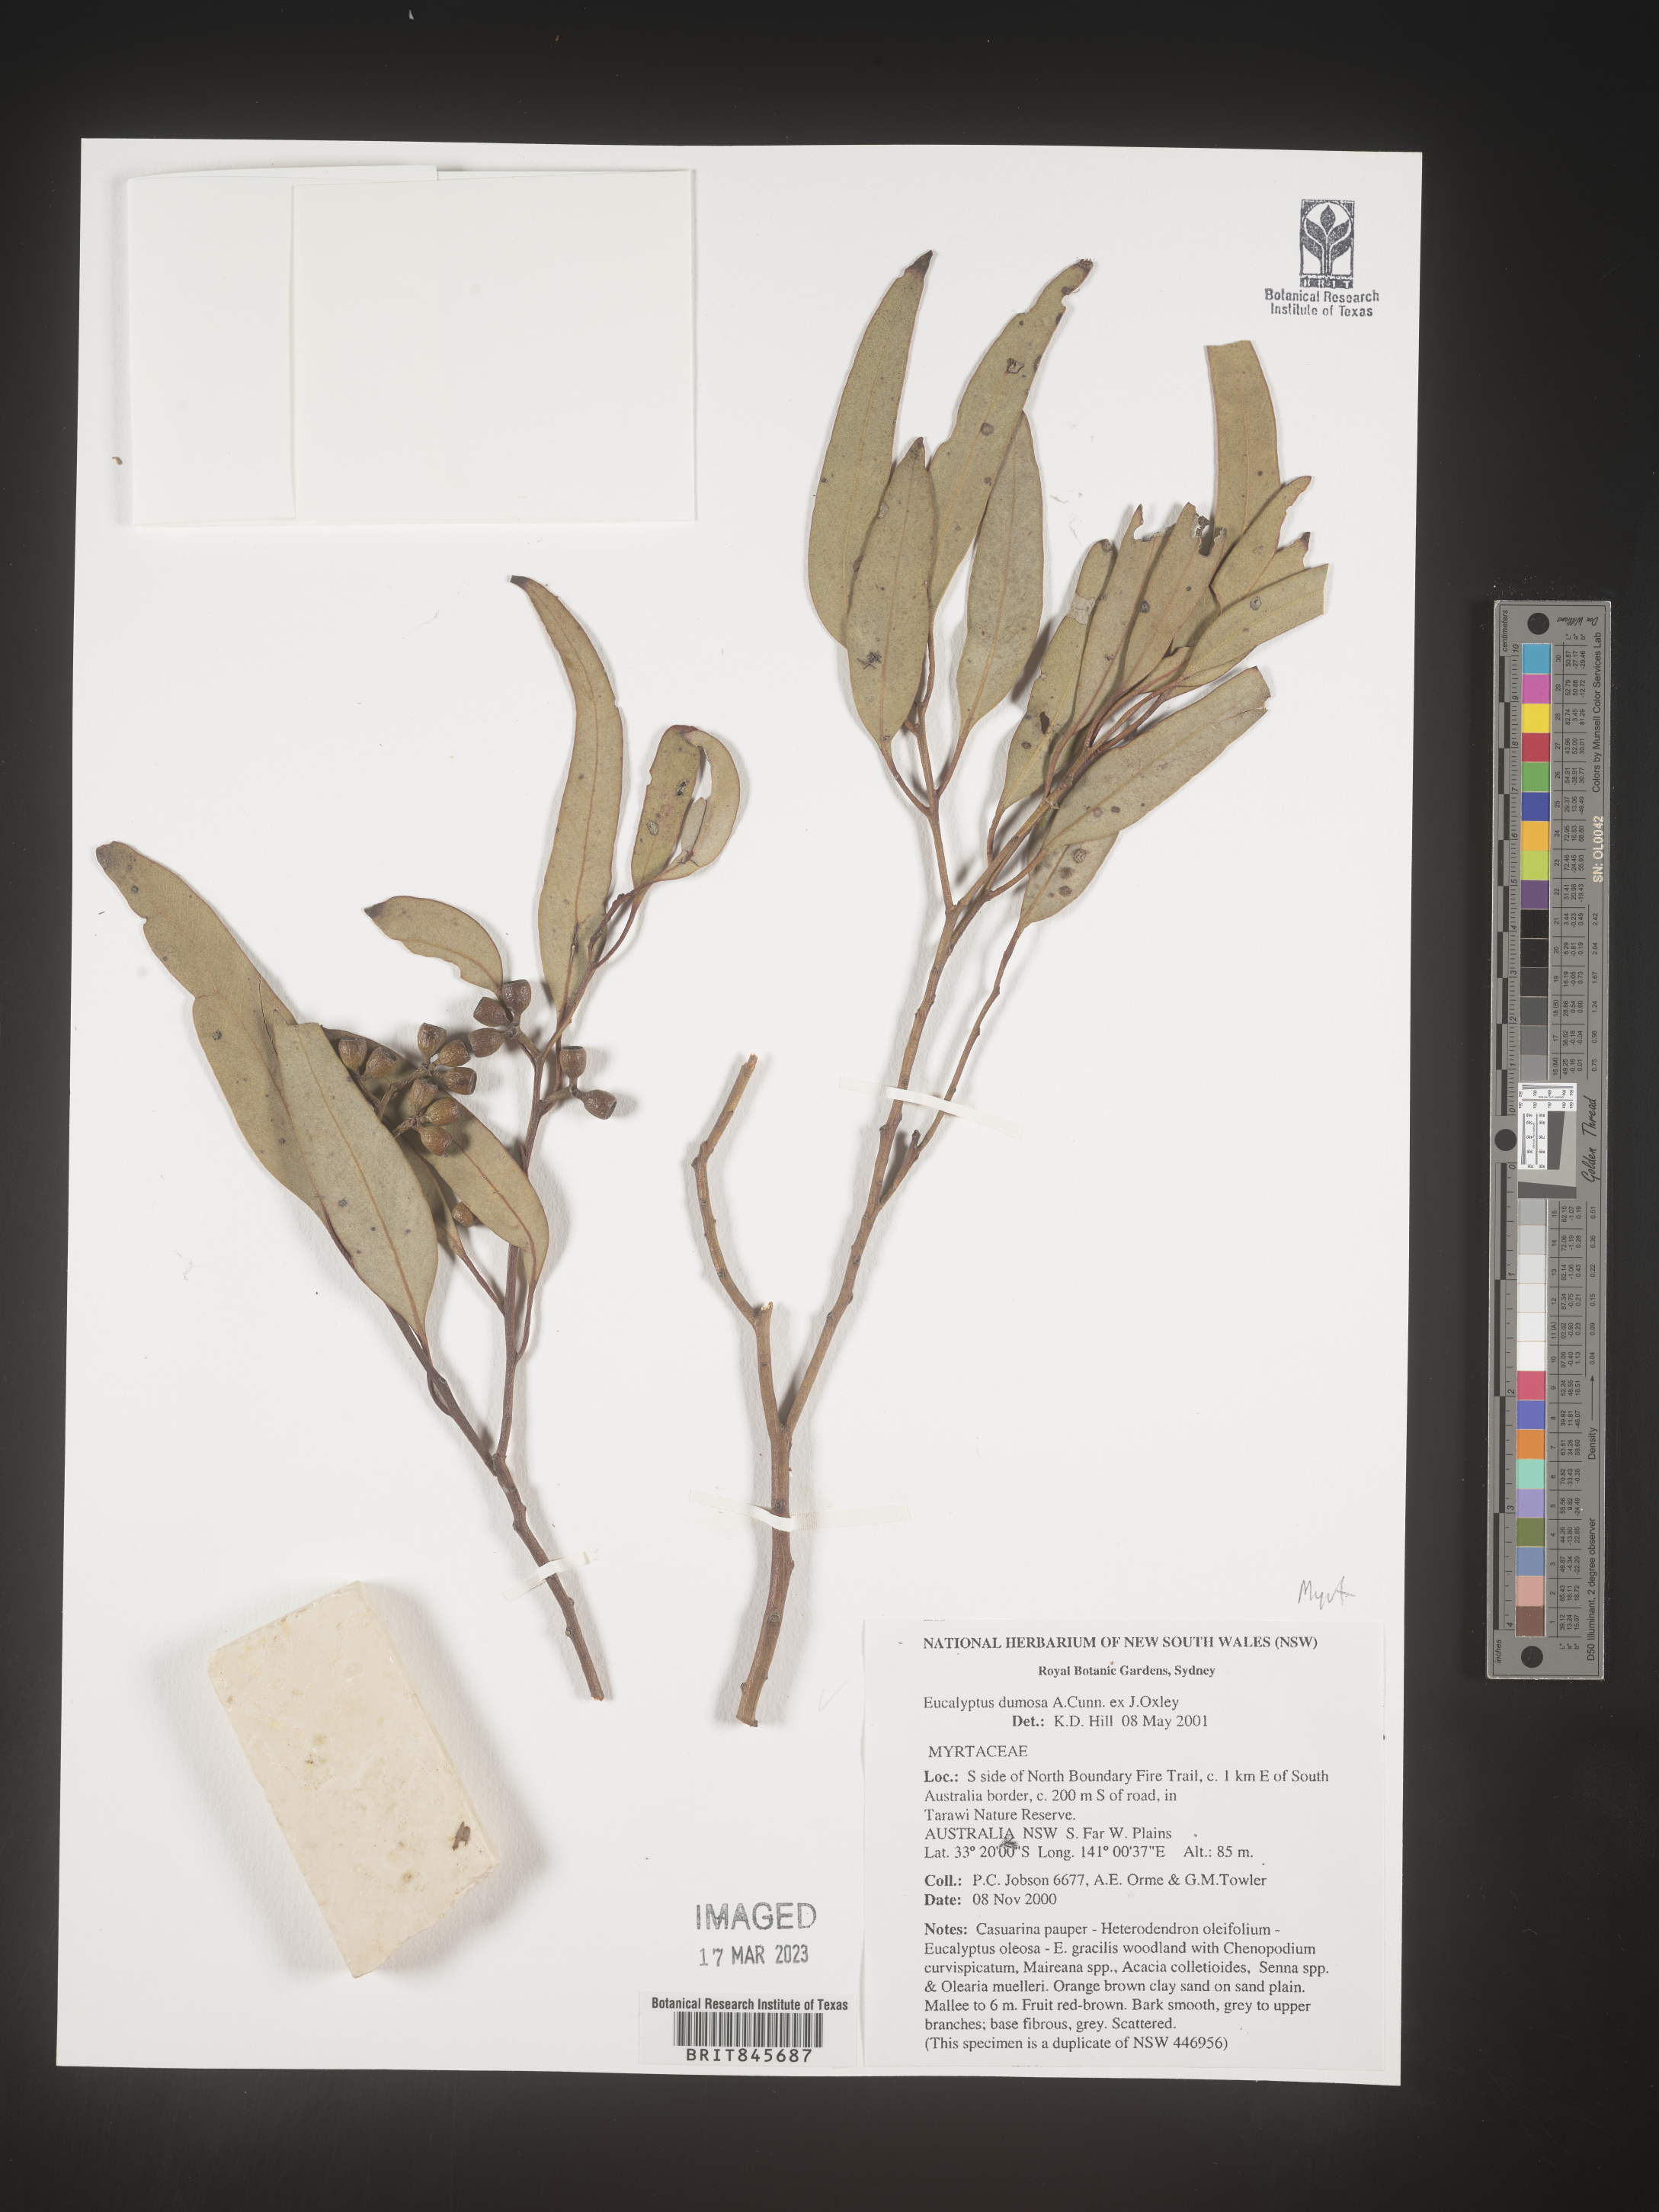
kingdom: Plantae
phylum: Tracheophyta
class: Magnoliopsida
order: Myrtales
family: Myrtaceae
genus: Eucalyptus
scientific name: Eucalyptus
